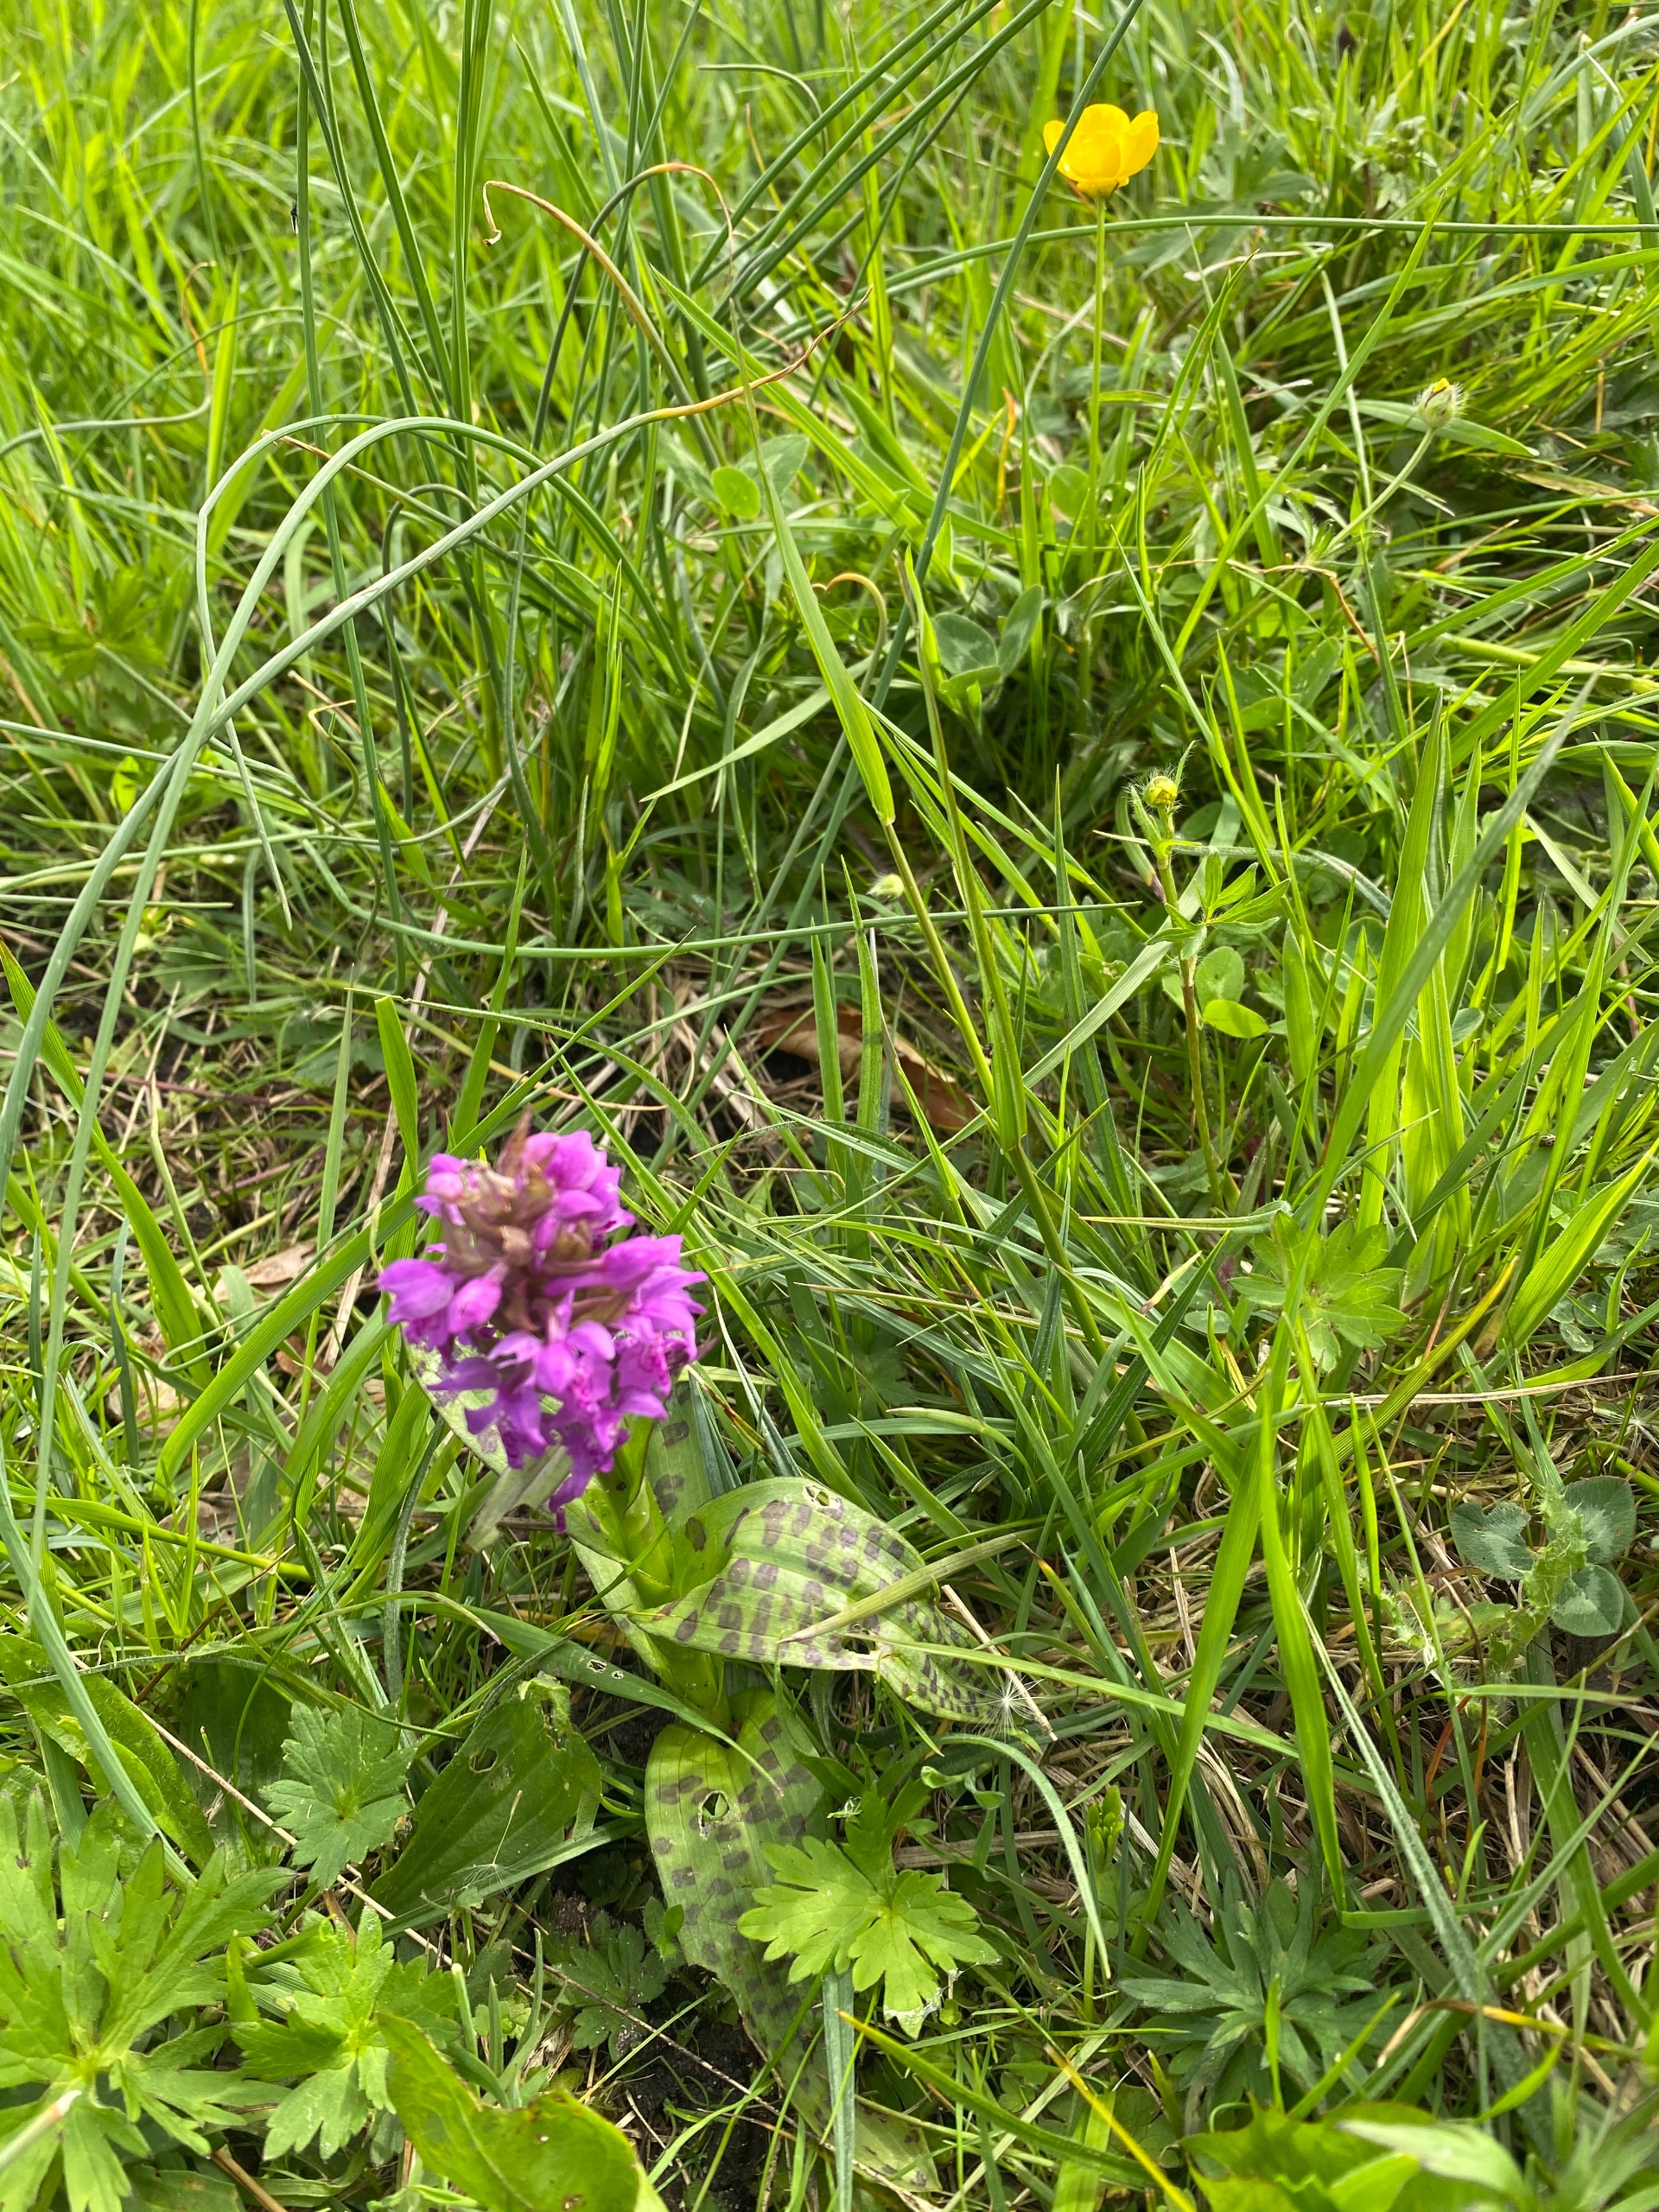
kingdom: Plantae
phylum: Tracheophyta
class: Liliopsida
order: Asparagales
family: Orchidaceae
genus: Dactylorhiza
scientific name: Dactylorhiza majalis
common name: Maj-gøgeurt
